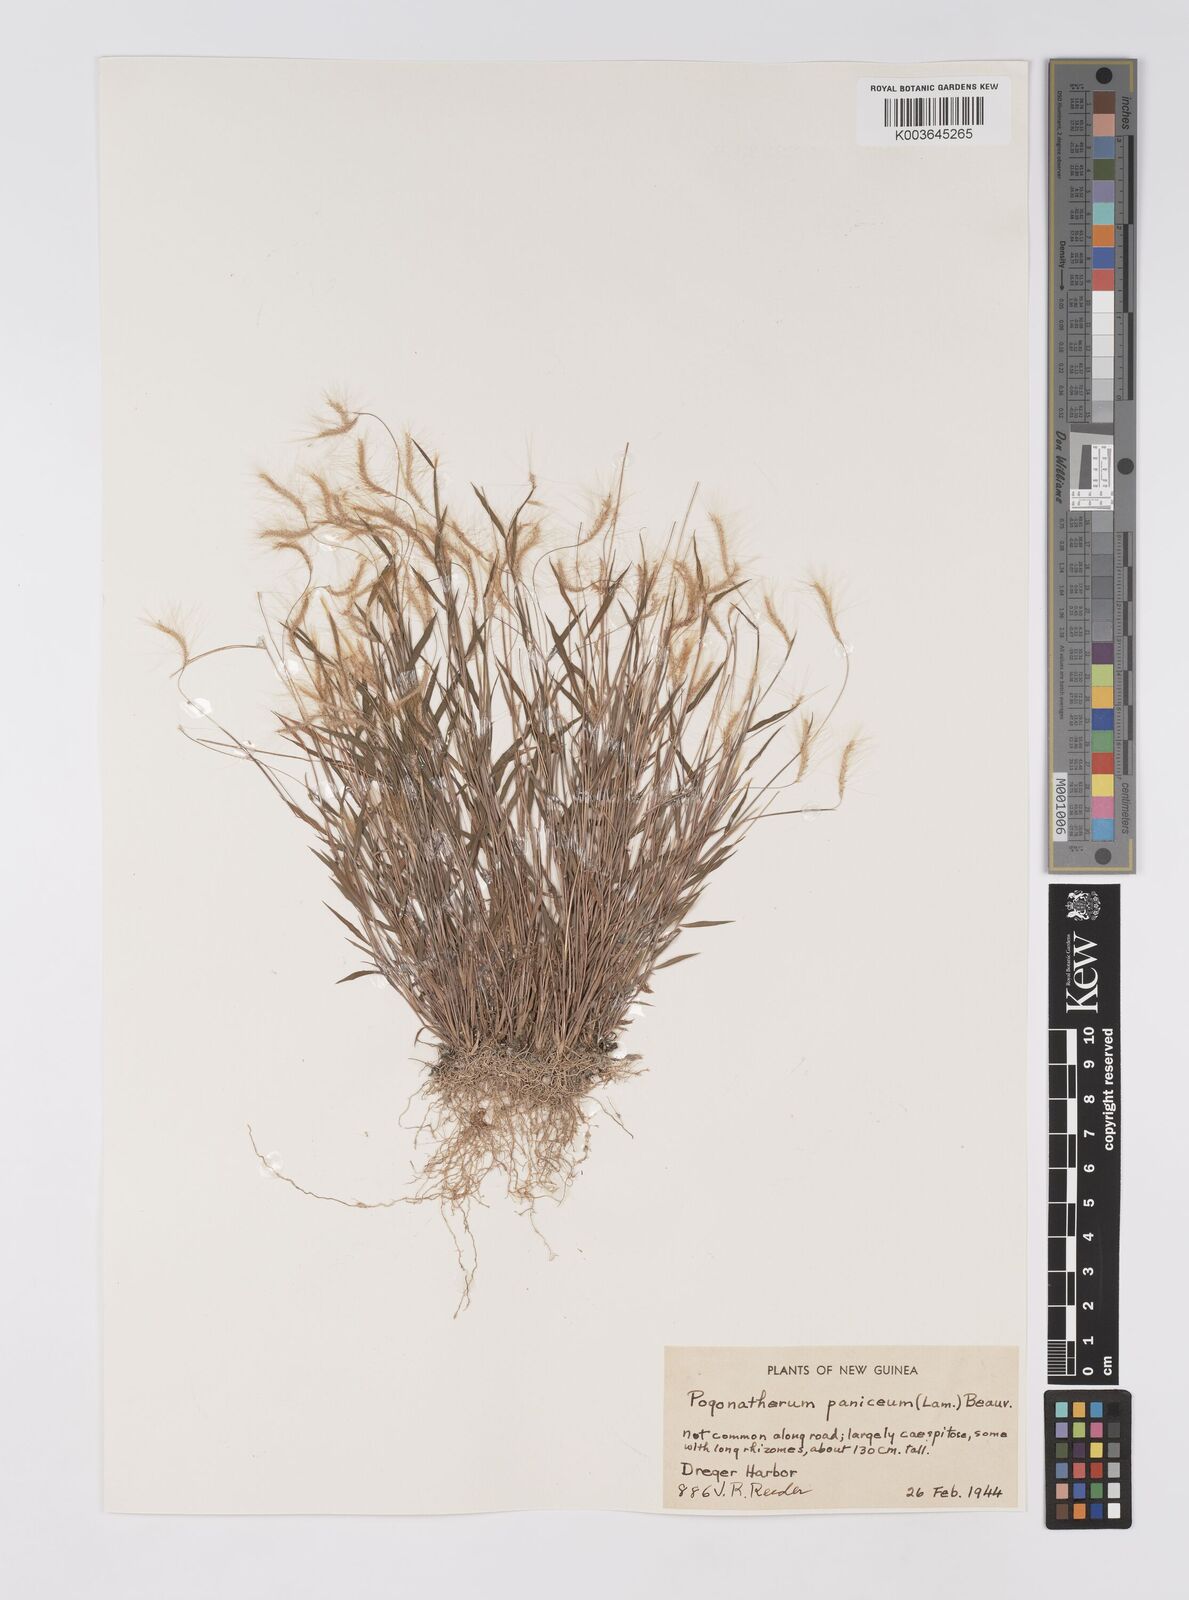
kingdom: Plantae
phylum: Tracheophyta
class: Liliopsida
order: Poales
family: Poaceae
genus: Pogonatherum
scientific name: Pogonatherum crinitum
